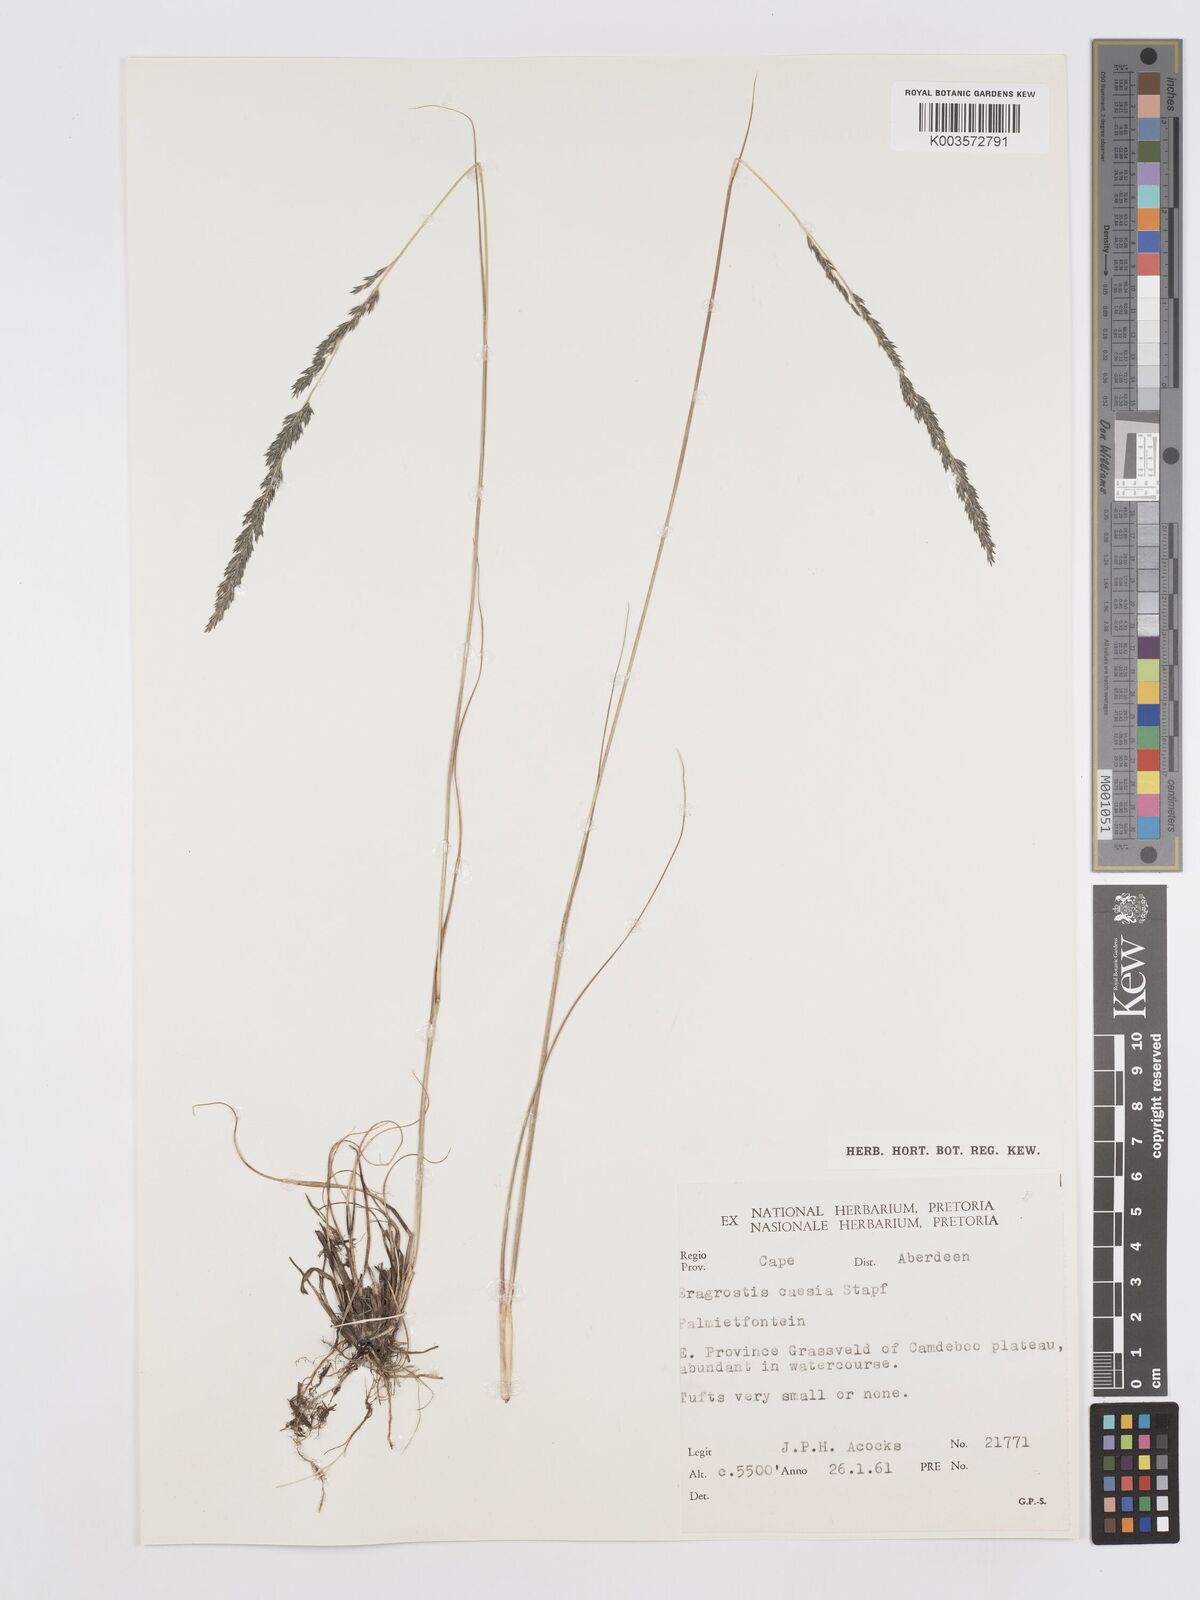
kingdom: Plantae
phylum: Tracheophyta
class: Liliopsida
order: Poales
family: Poaceae
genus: Eragrostis
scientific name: Eragrostis caesia
